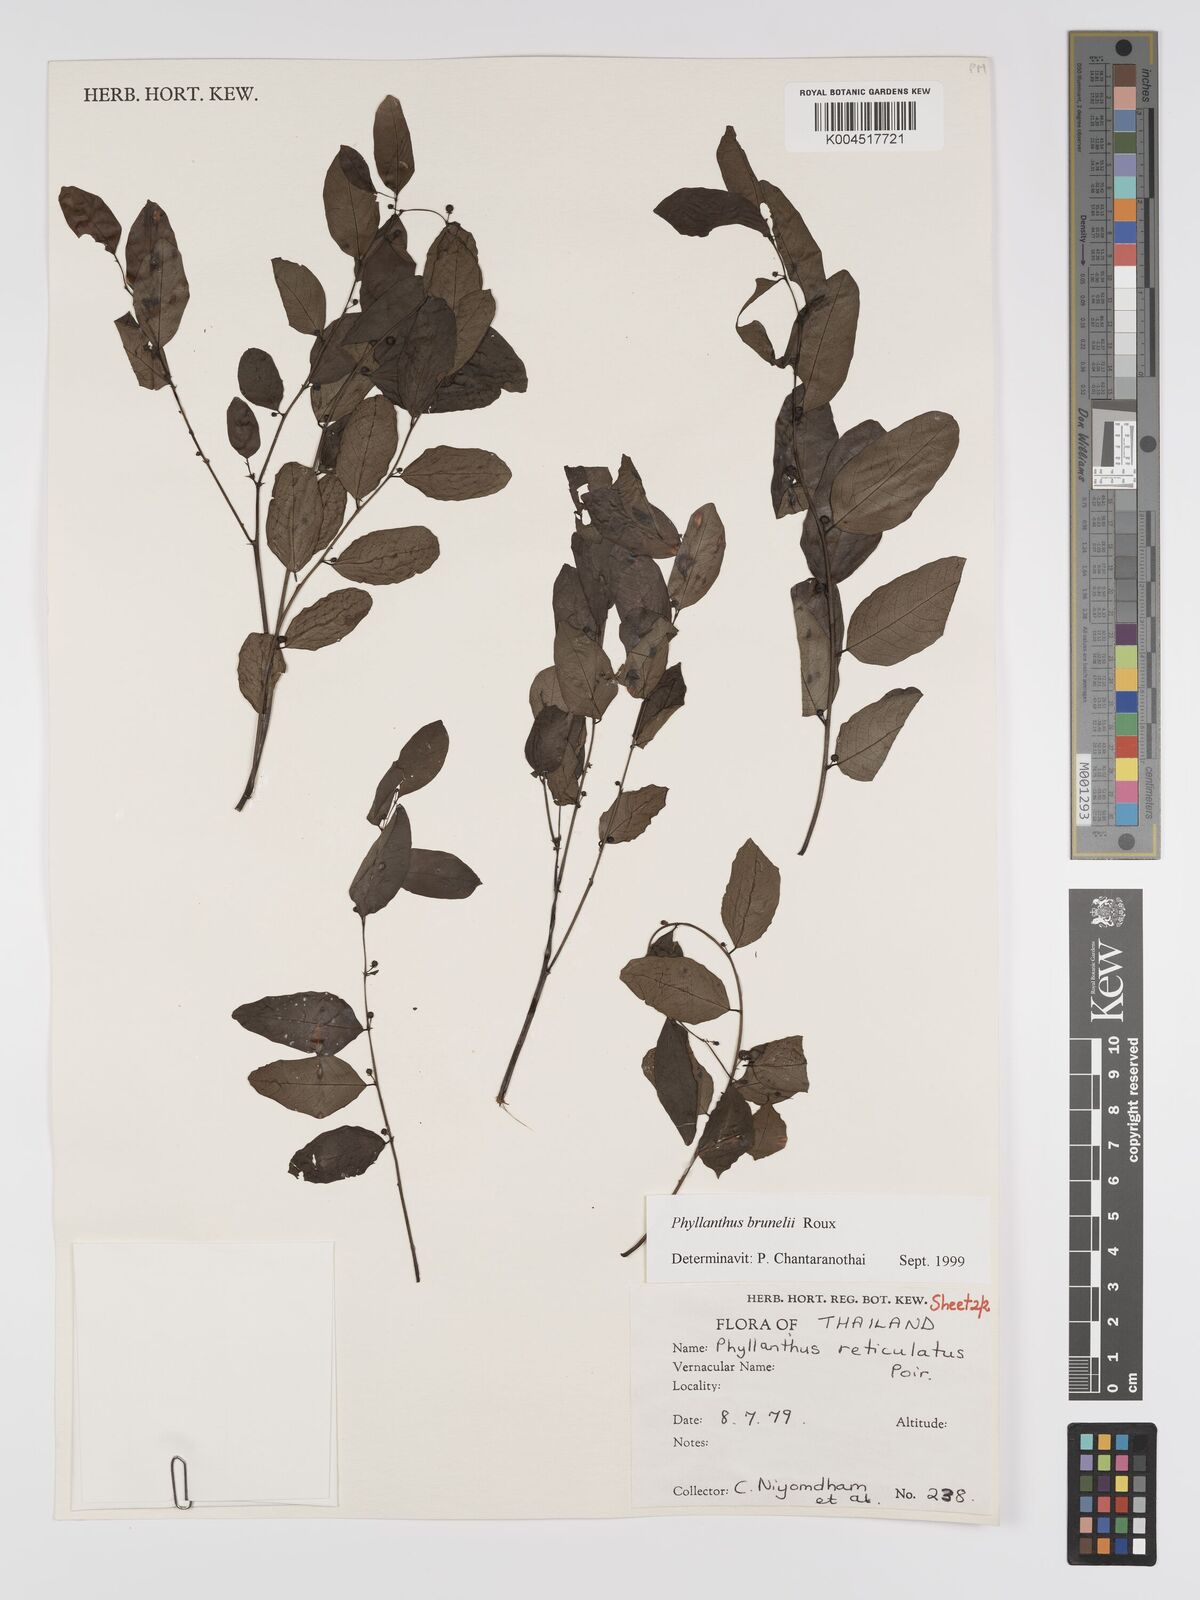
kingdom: Plantae
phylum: Tracheophyta
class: Magnoliopsida
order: Malpighiales
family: Phyllanthaceae
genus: Phyllanthus
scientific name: Phyllanthus microcarpus
